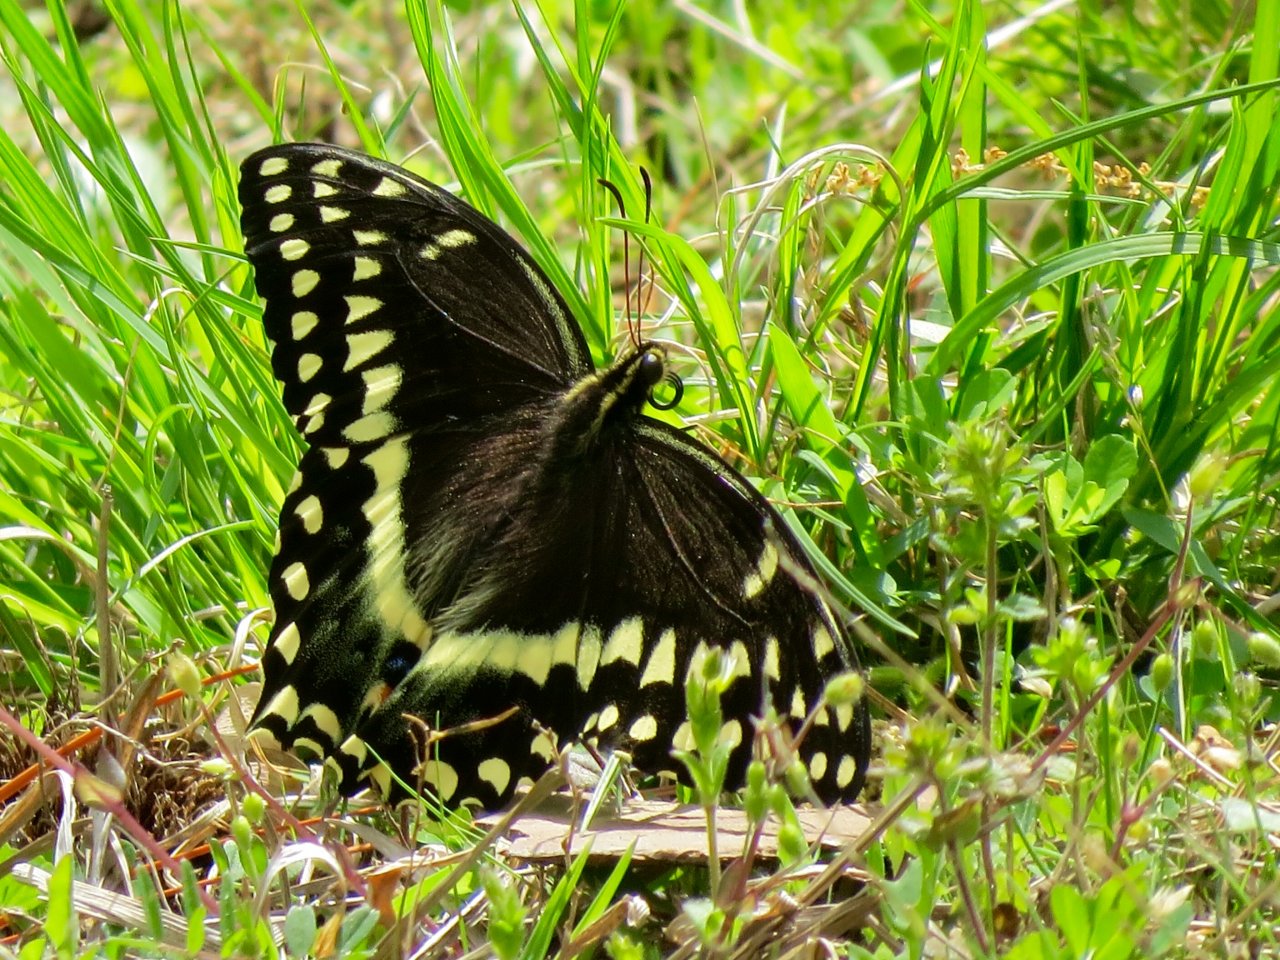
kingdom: Animalia
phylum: Arthropoda
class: Insecta
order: Lepidoptera
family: Papilionidae
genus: Pterourus
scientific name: Pterourus palamedes
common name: Palamedes Swallowtail
